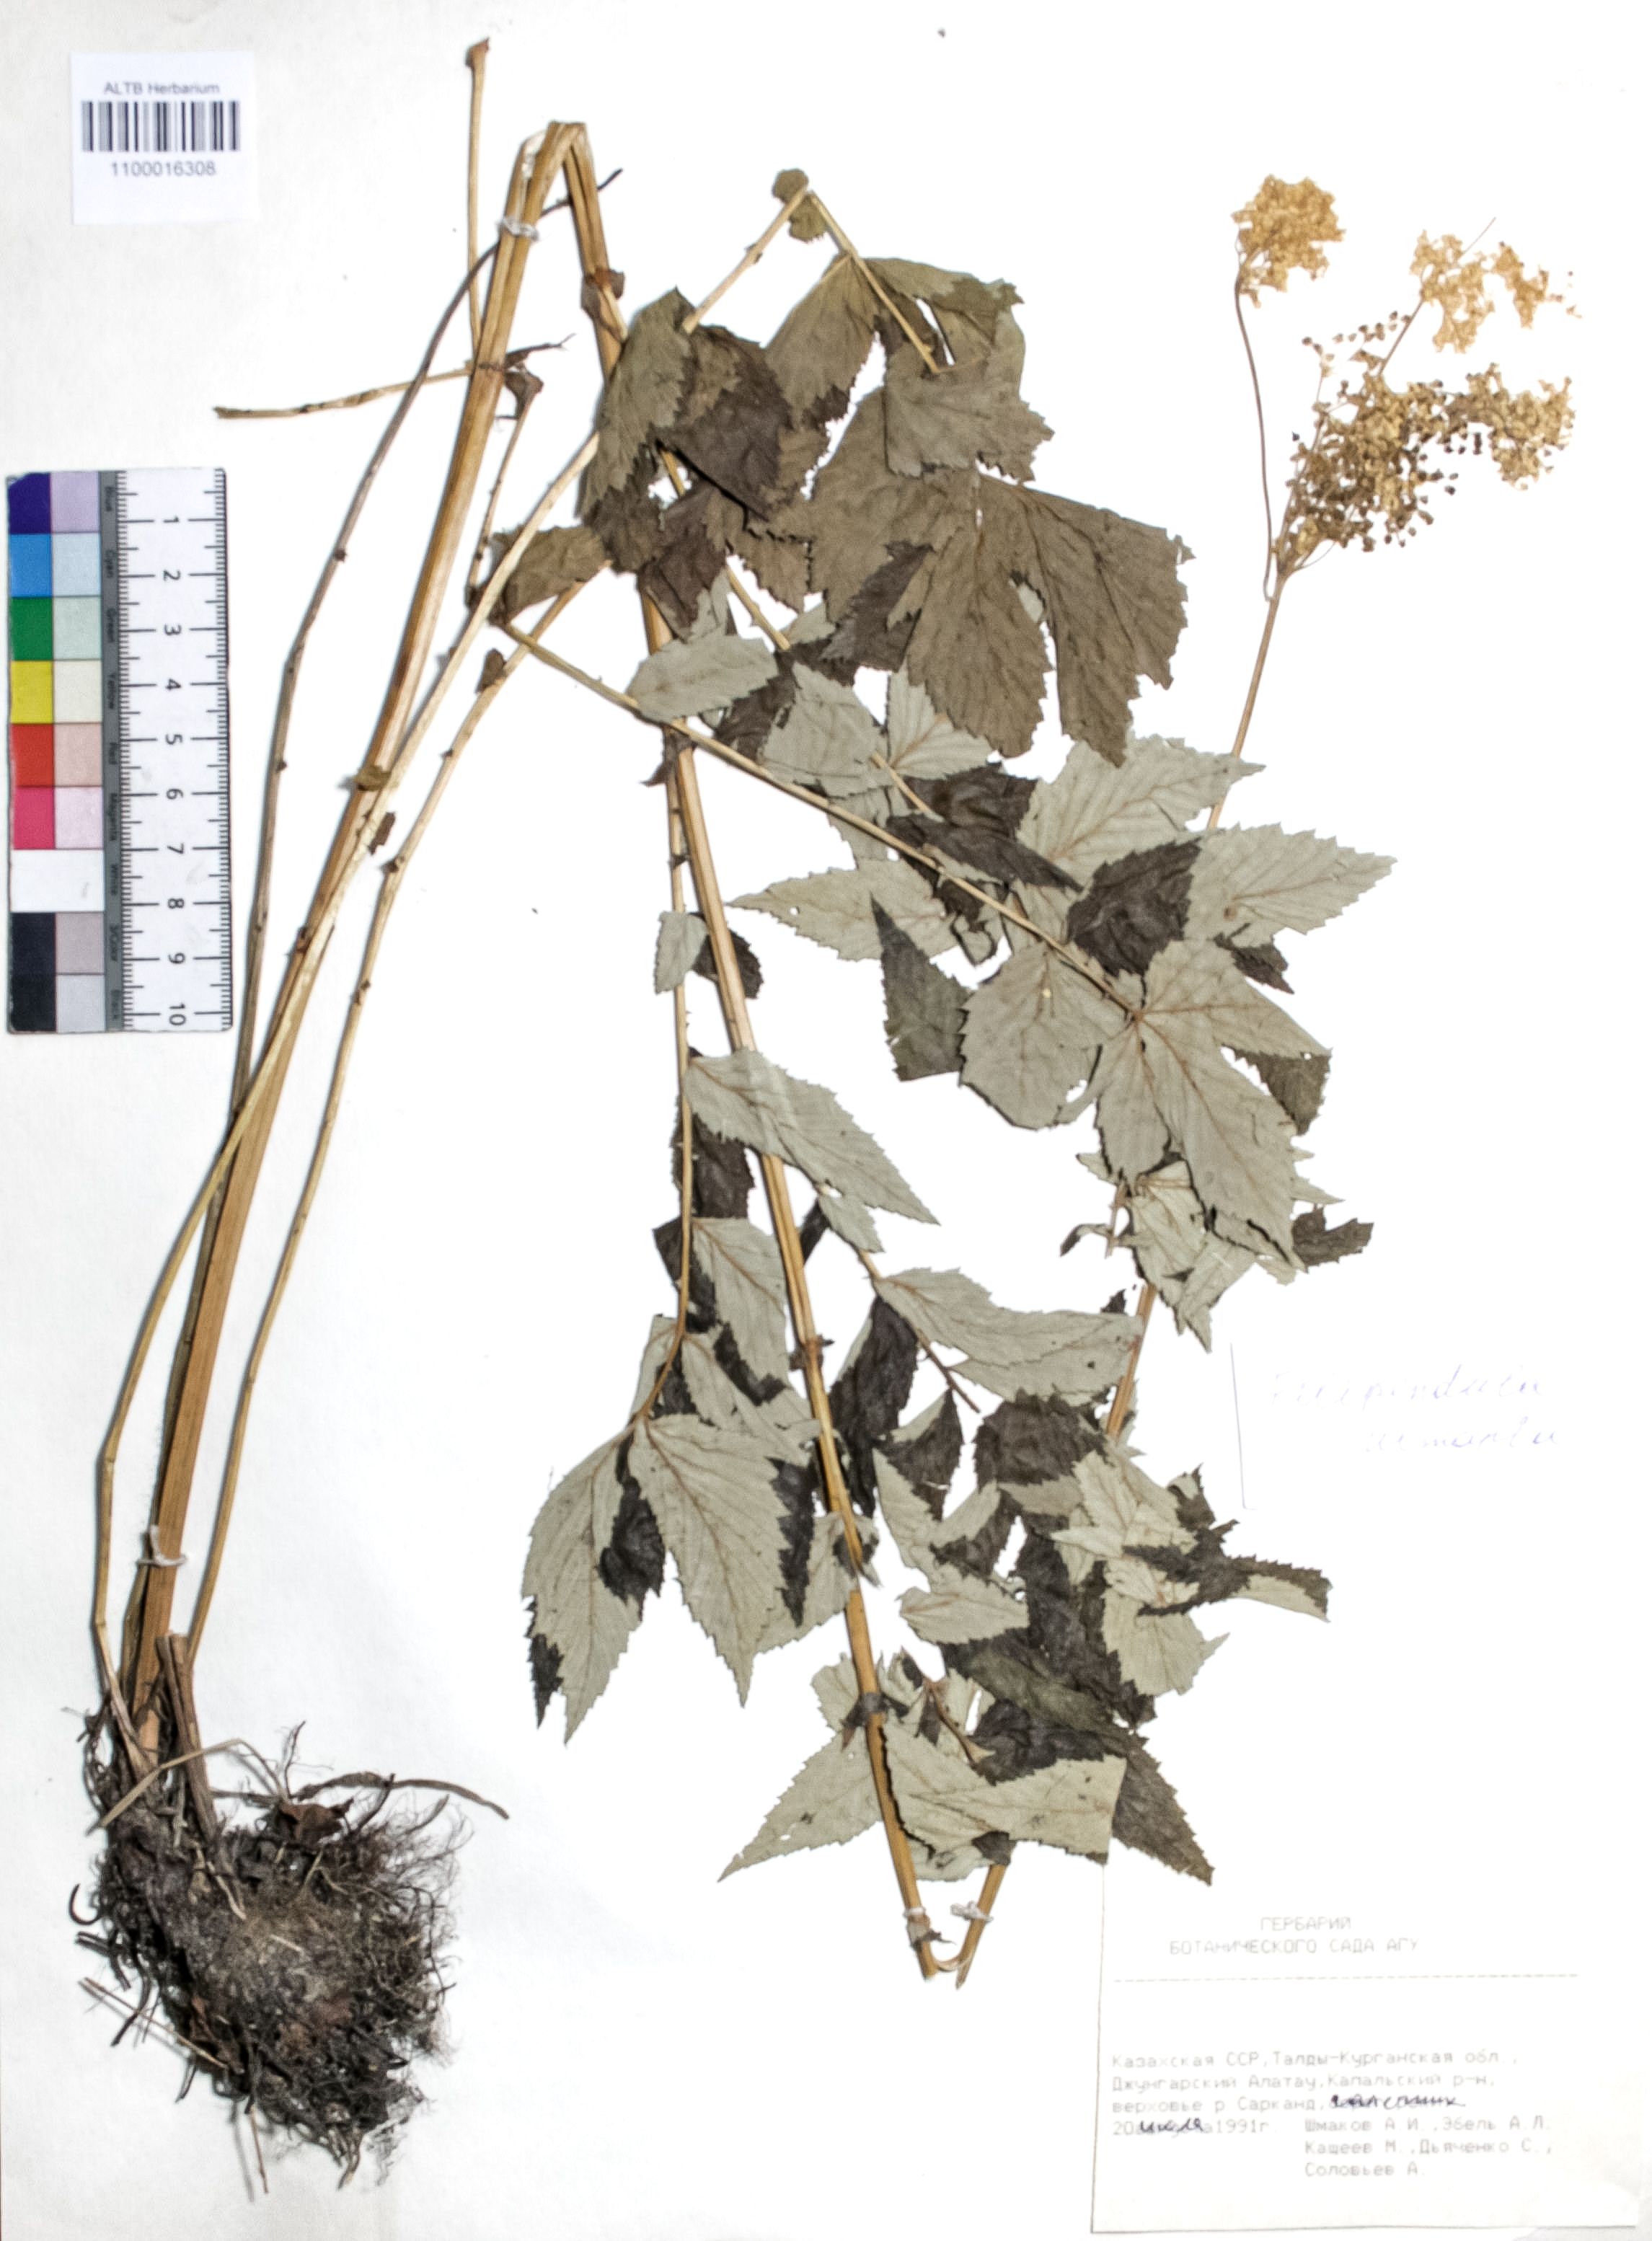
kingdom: Plantae
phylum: Tracheophyta
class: Magnoliopsida
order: Rosales
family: Rosaceae
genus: Filipendula
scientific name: Filipendula ulmaria
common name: Meadowsweet
